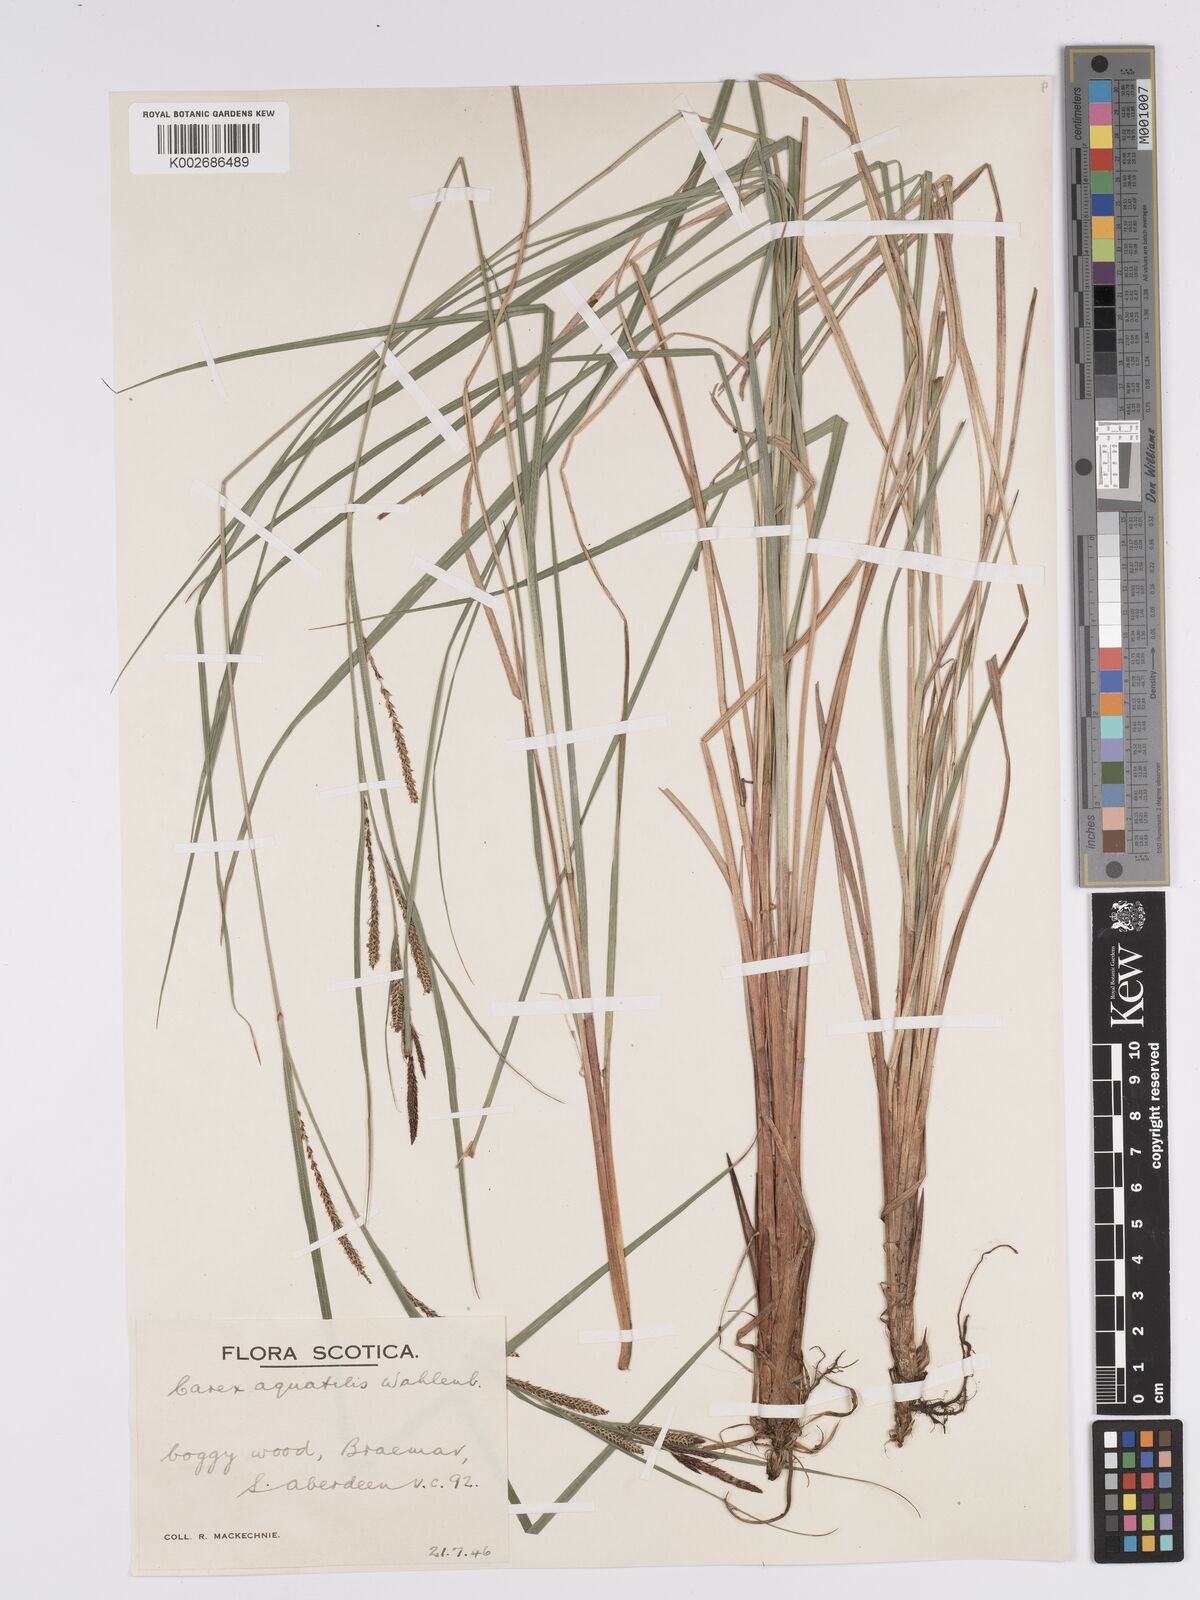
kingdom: Plantae
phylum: Tracheophyta
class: Liliopsida
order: Poales
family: Cyperaceae
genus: Carex
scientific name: Carex aquatilis
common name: Water sedge
